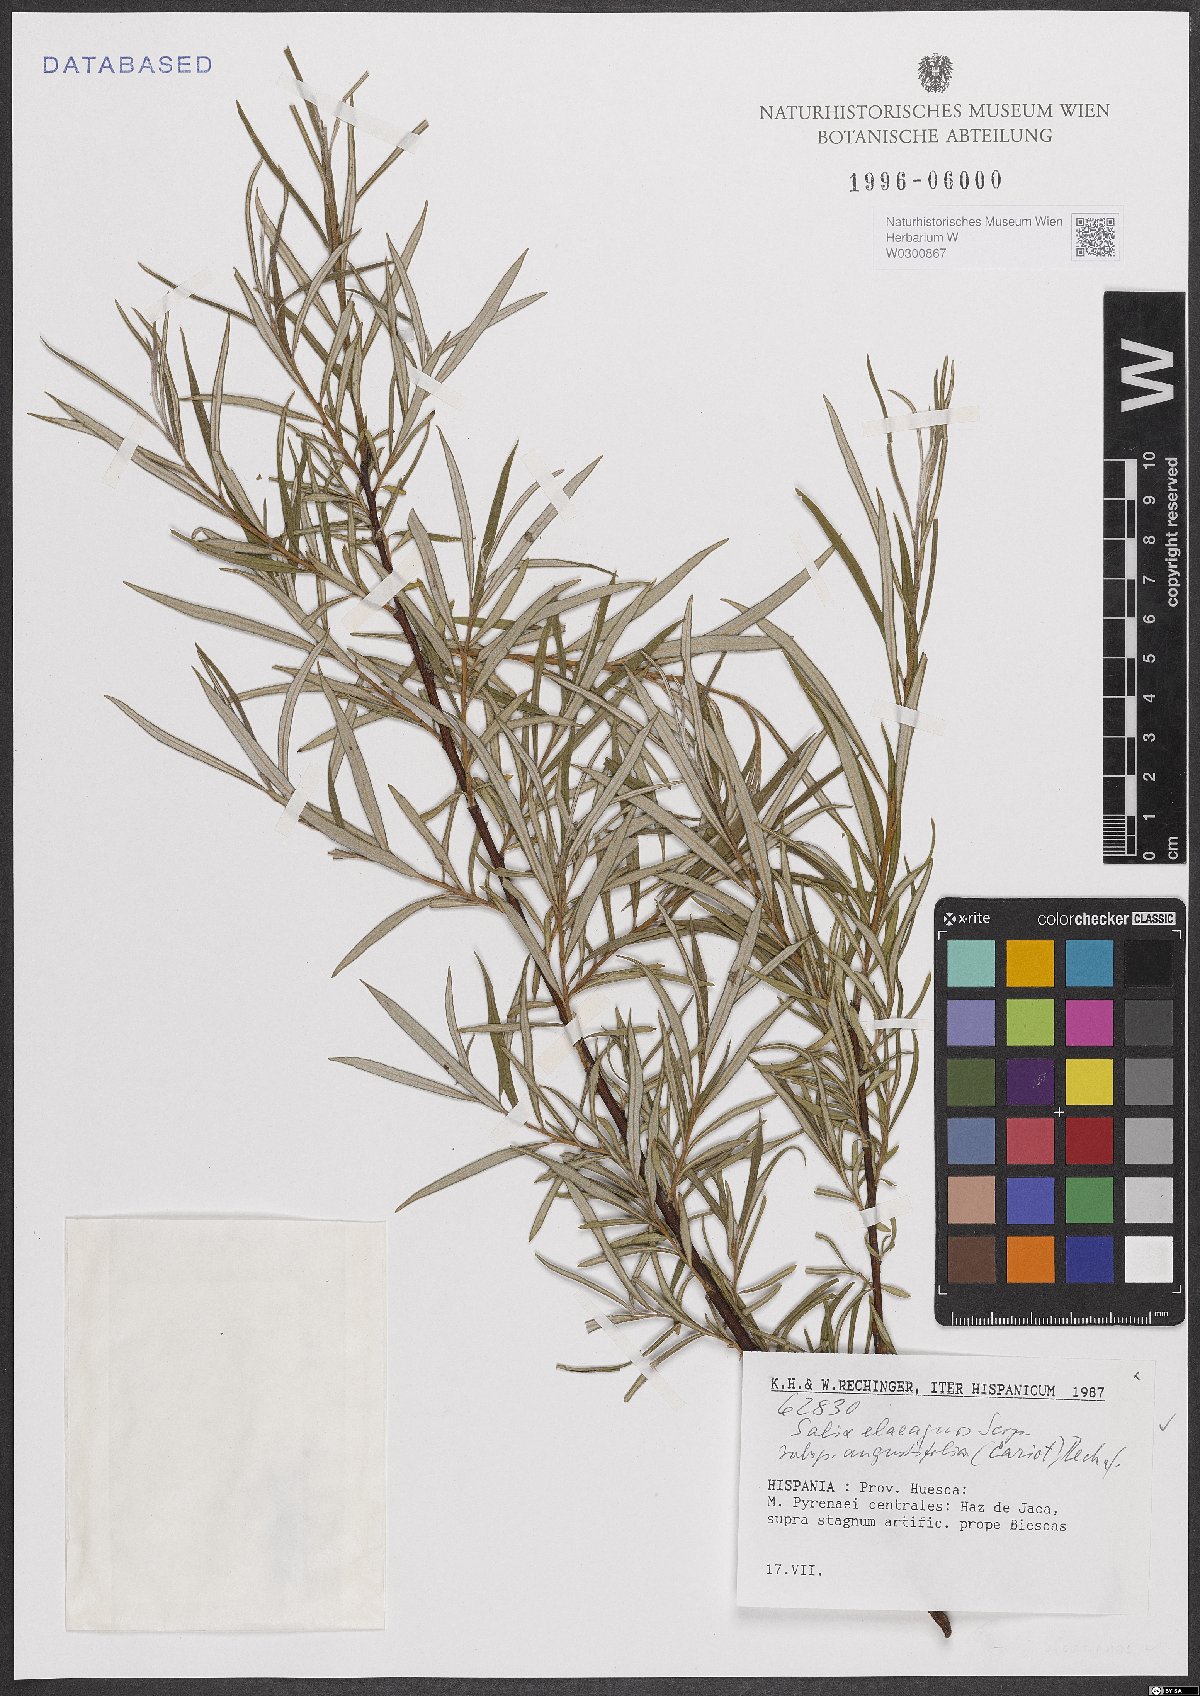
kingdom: Plantae
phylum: Tracheophyta
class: Magnoliopsida
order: Malpighiales
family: Salicaceae
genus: Salix
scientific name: Salix eleagnos
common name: Elaeagnus willow
